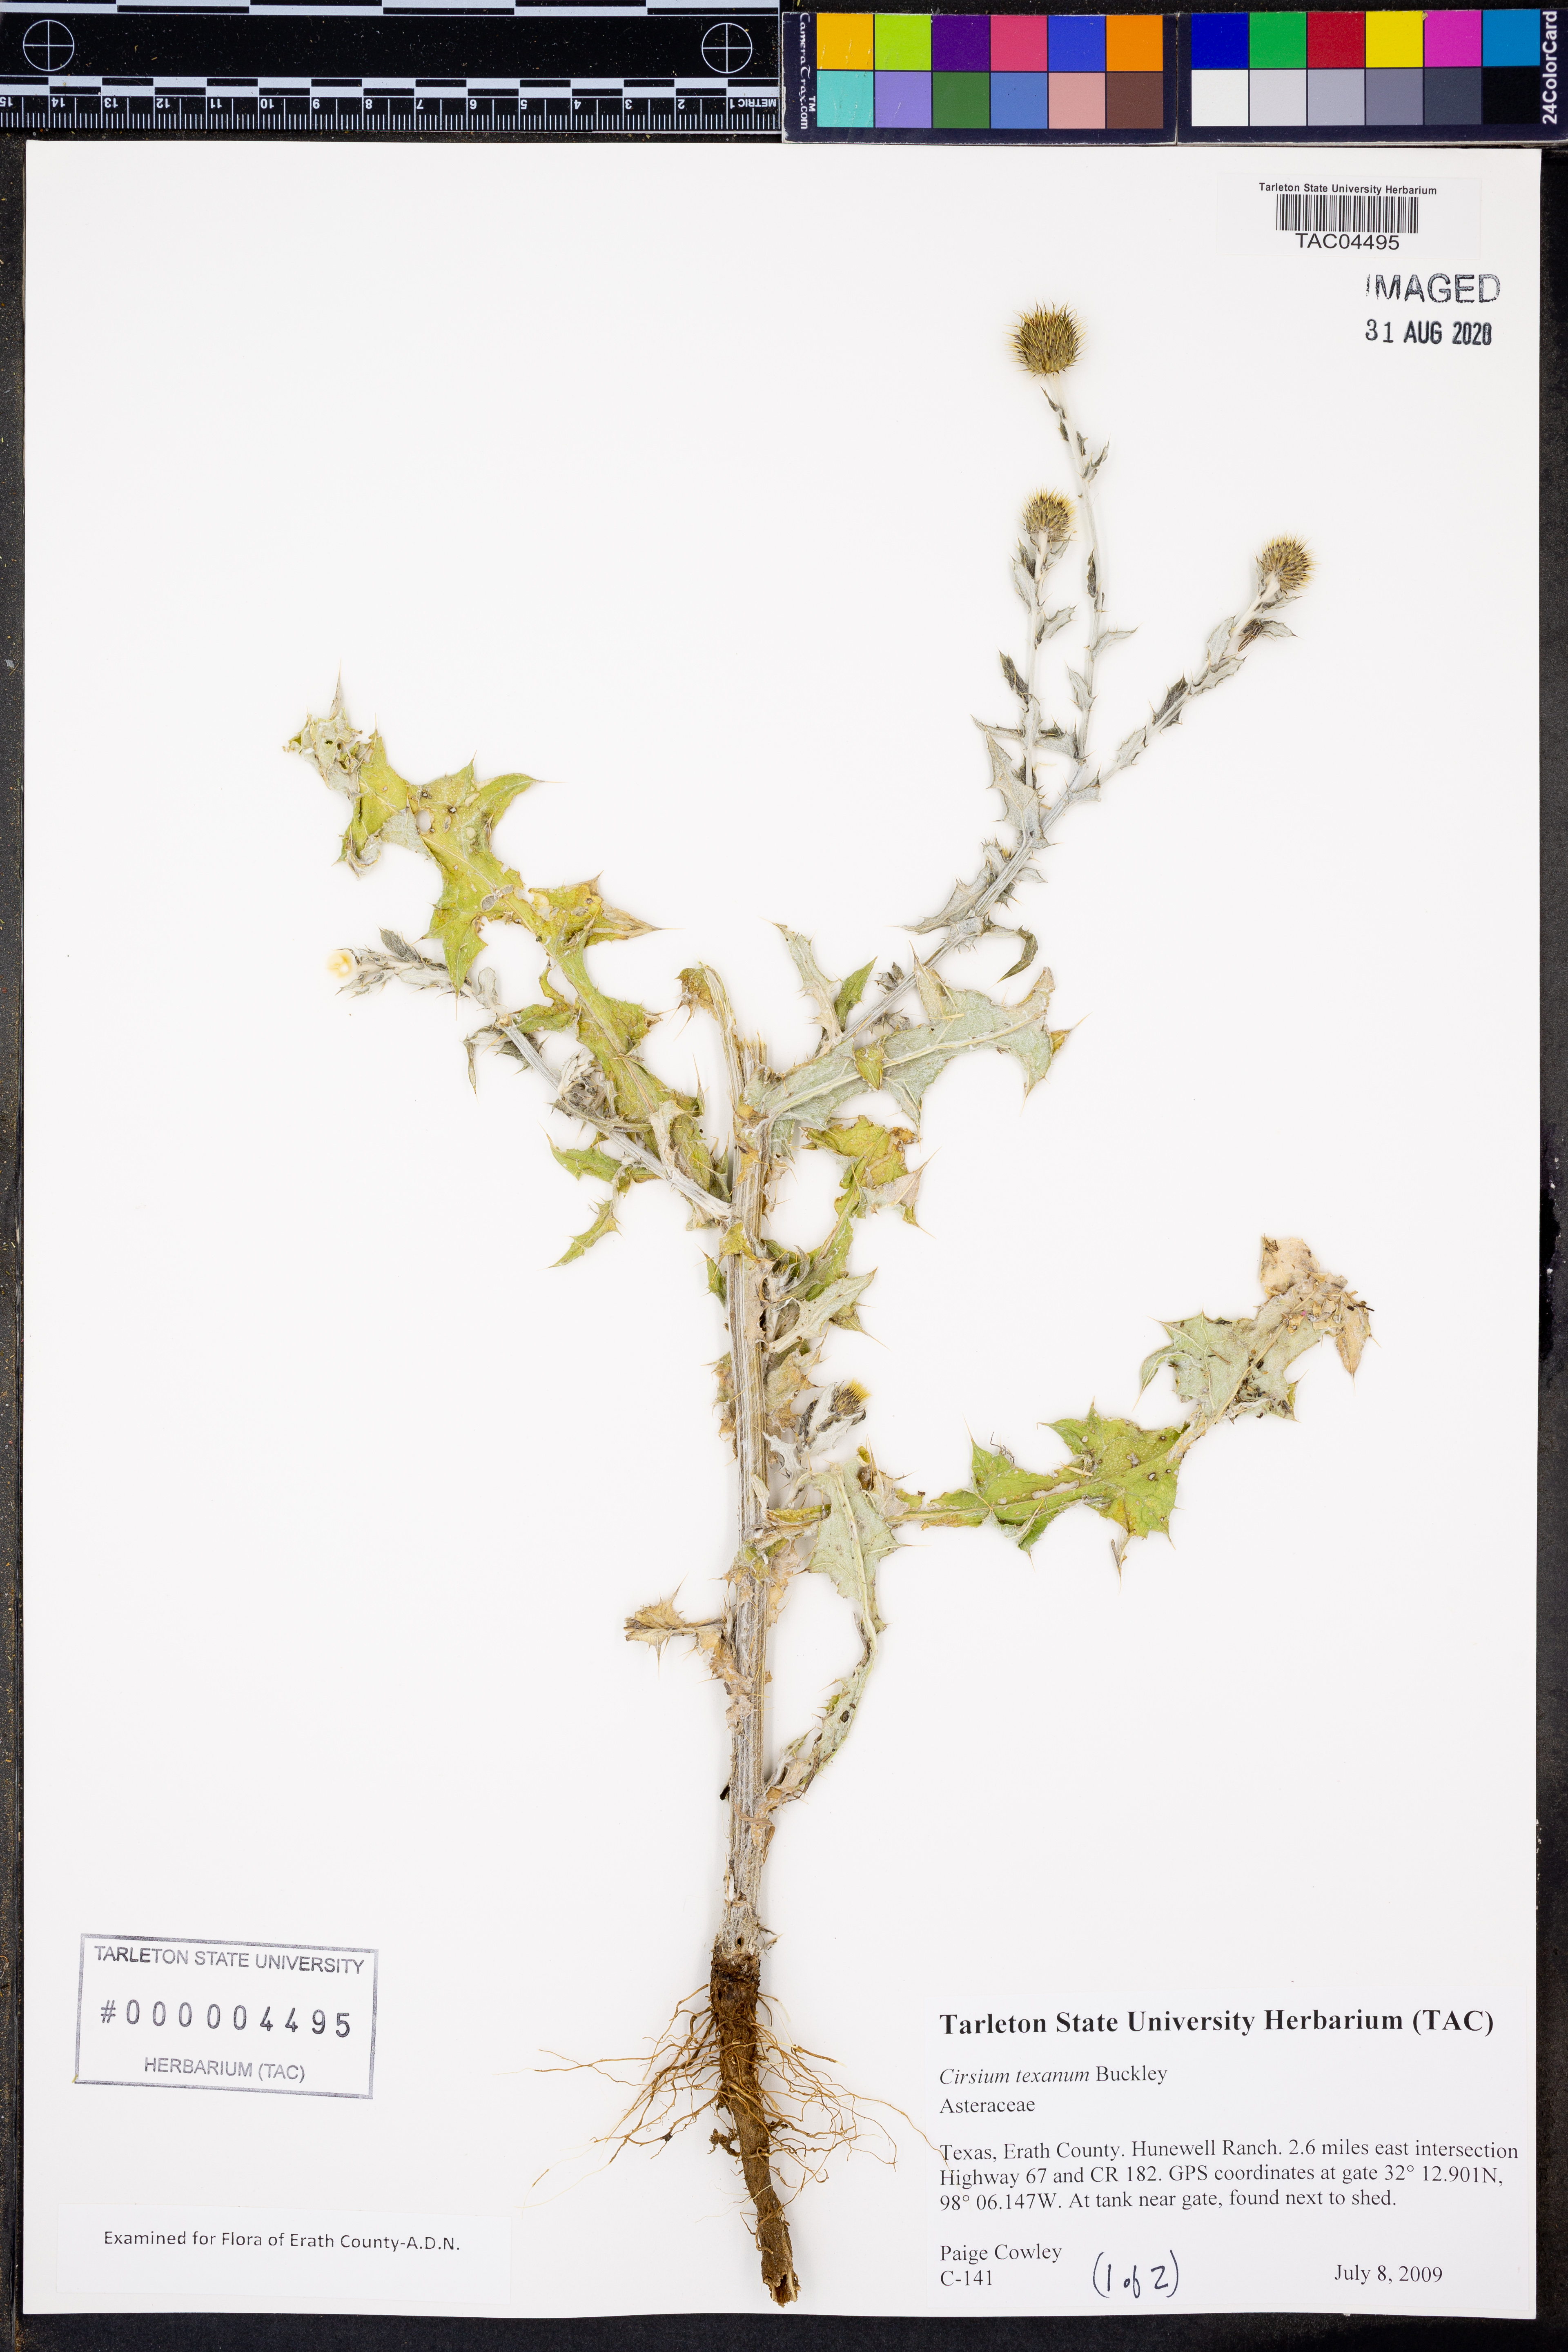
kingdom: Plantae
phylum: Tracheophyta
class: Magnoliopsida
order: Asterales
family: Asteraceae
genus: Cirsium
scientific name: Cirsium texanum
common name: Texas purple thistle
